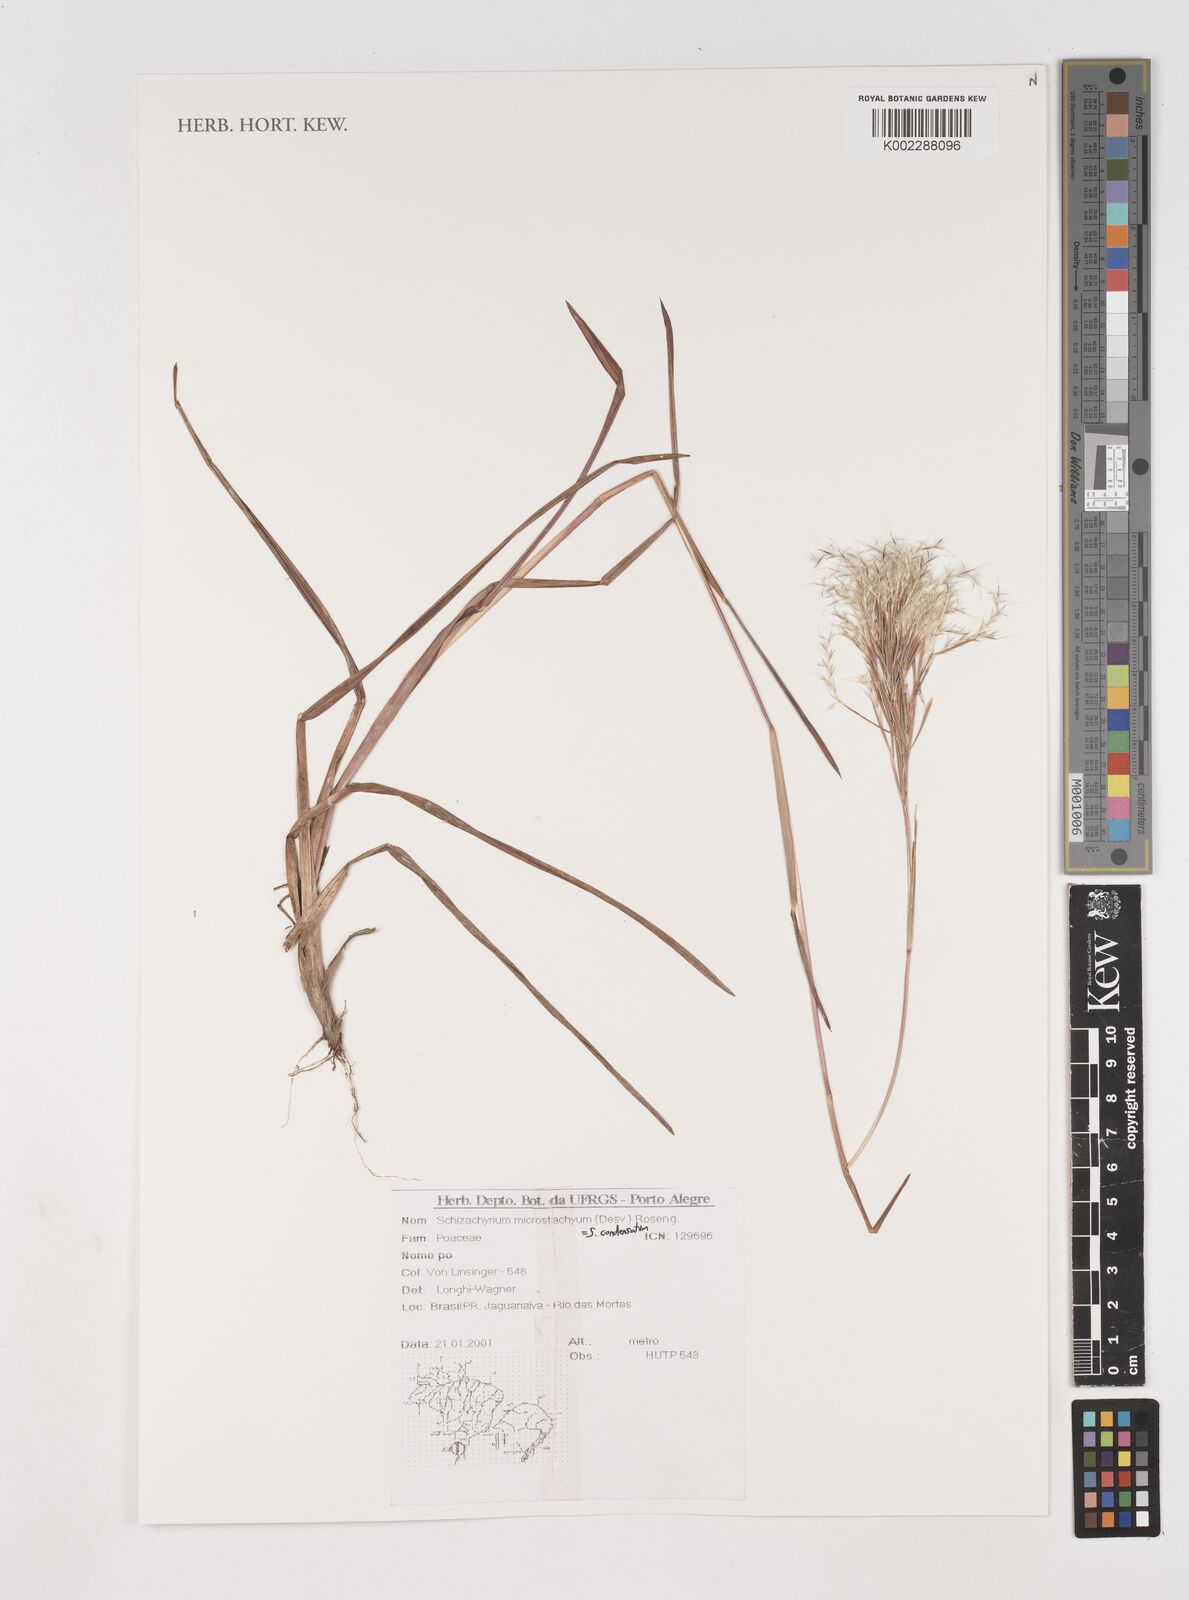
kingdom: Plantae
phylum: Tracheophyta
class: Liliopsida
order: Poales
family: Poaceae
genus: Schizachyrium
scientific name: Schizachyrium condensatum
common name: Bush beardgrass
